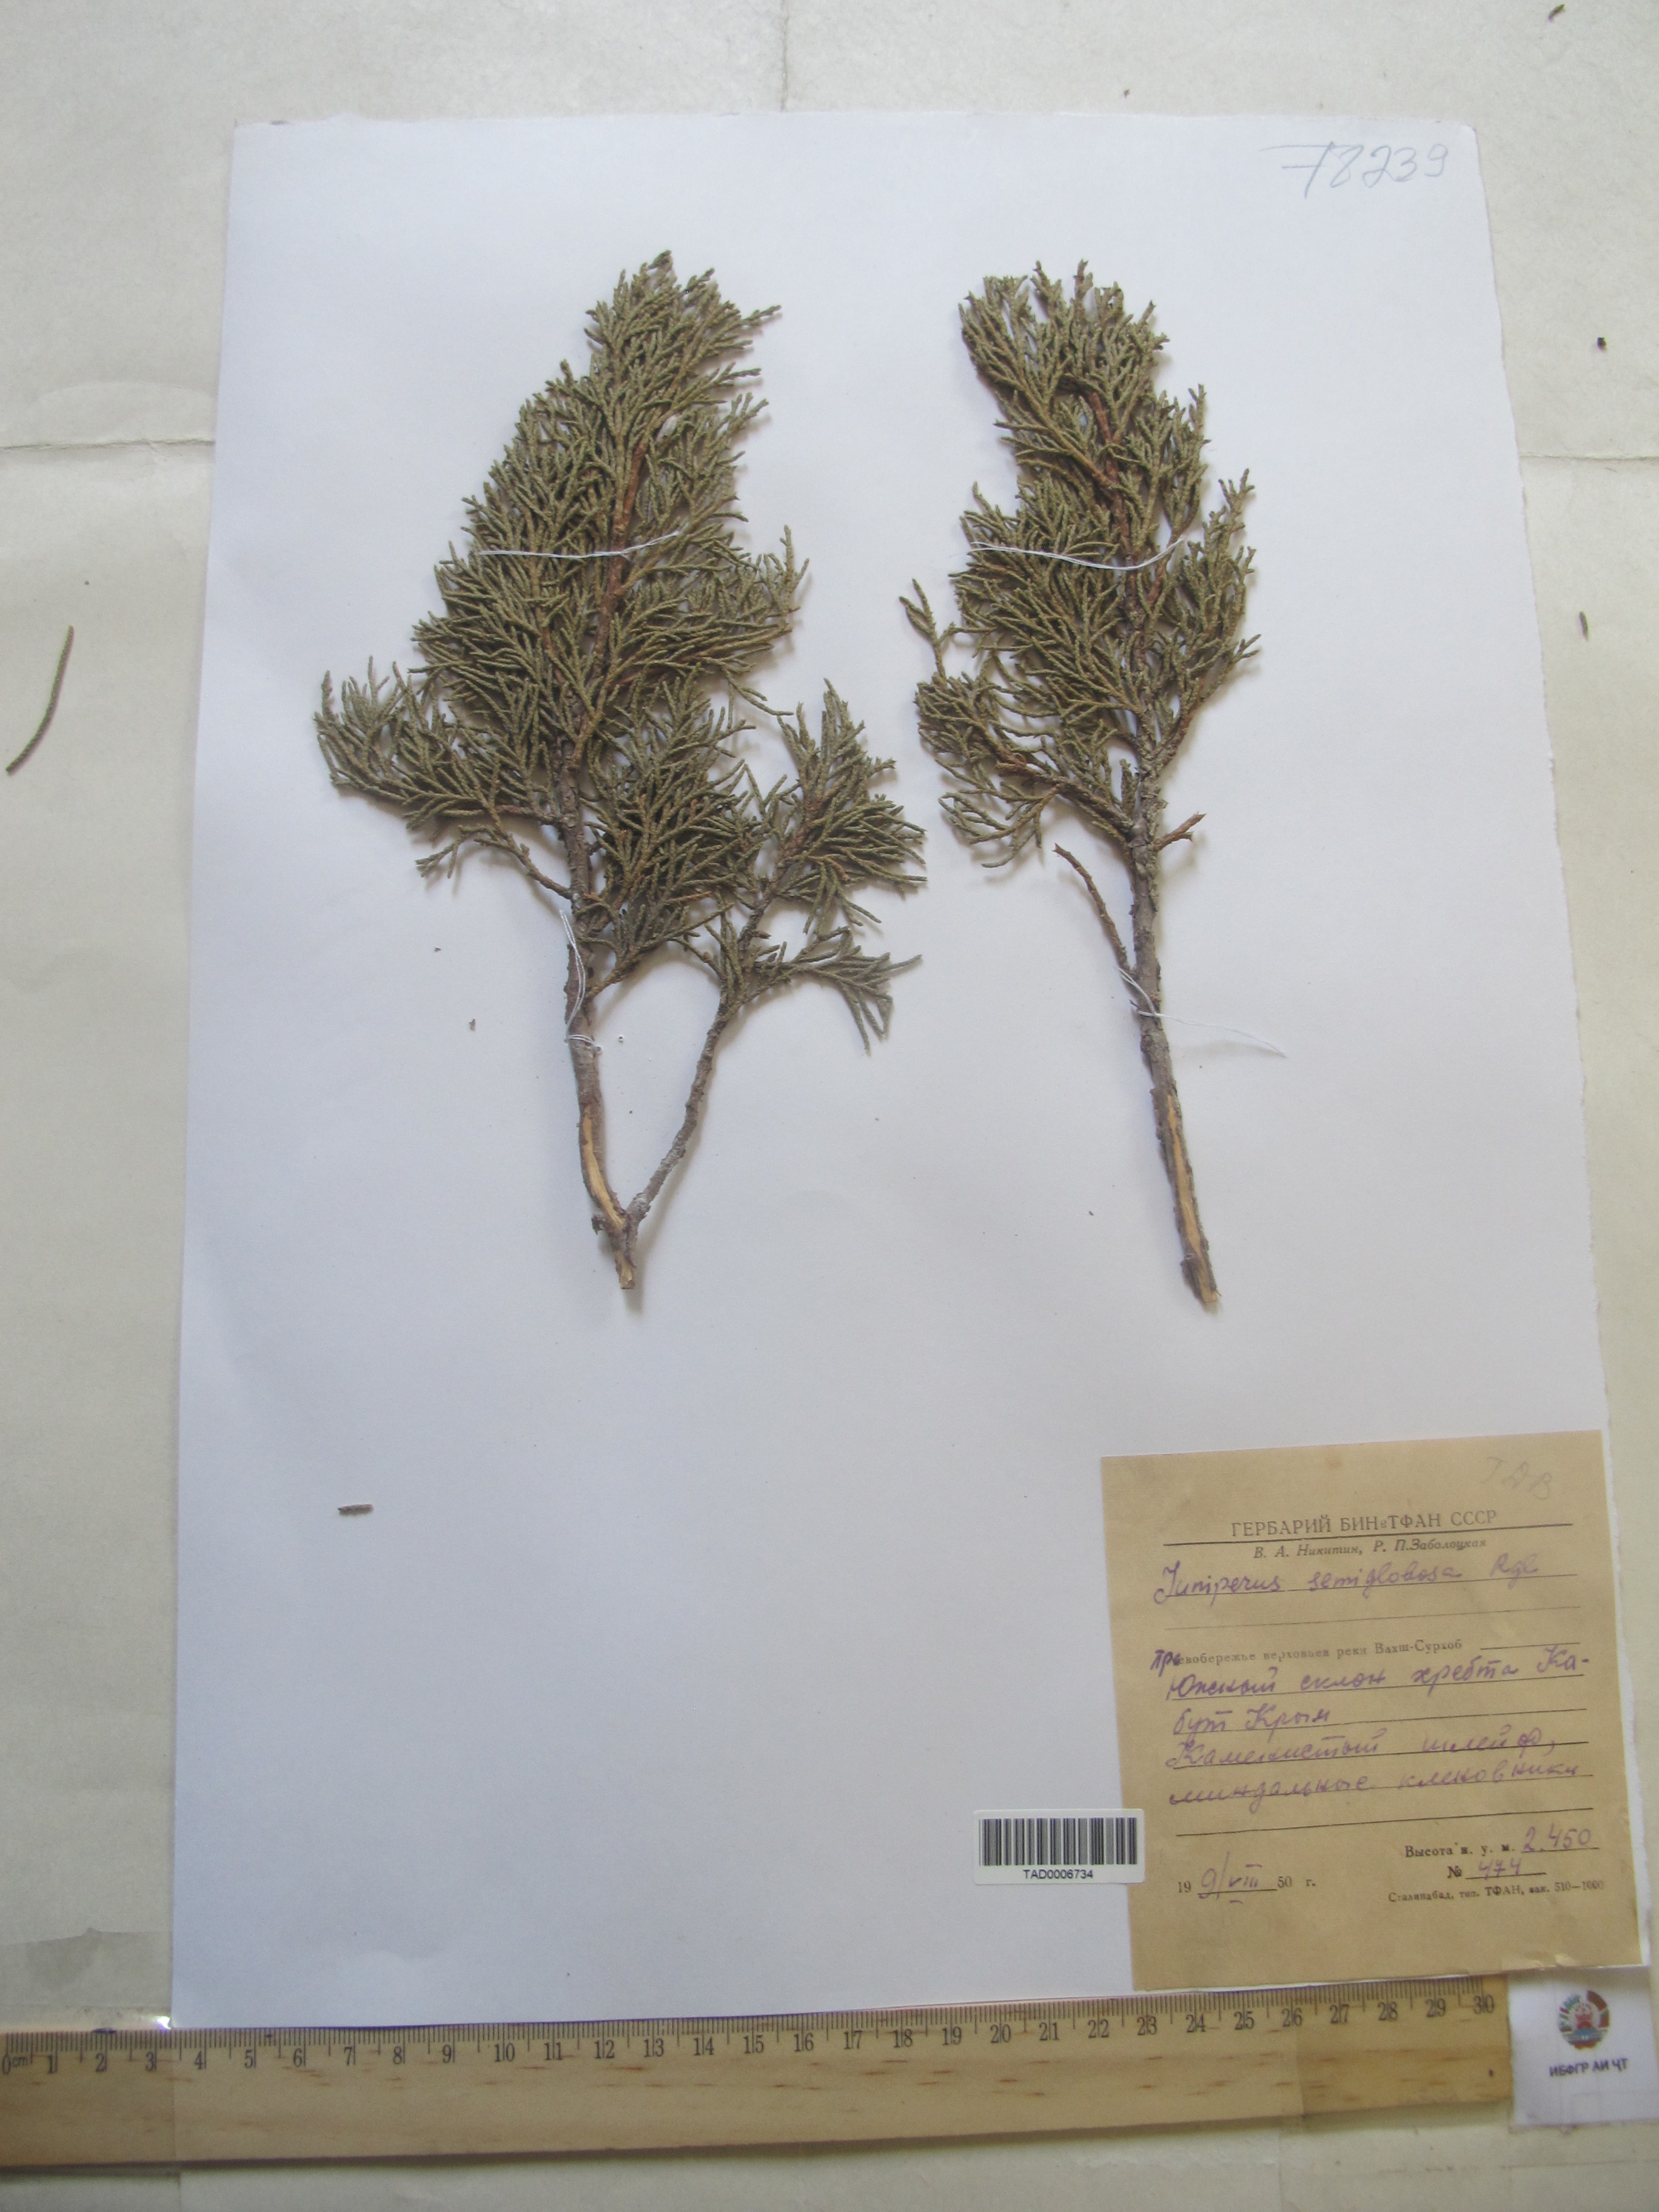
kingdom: Plantae
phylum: Tracheophyta
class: Pinopsida
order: Pinales
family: Cupressaceae
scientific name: Cupressaceae
